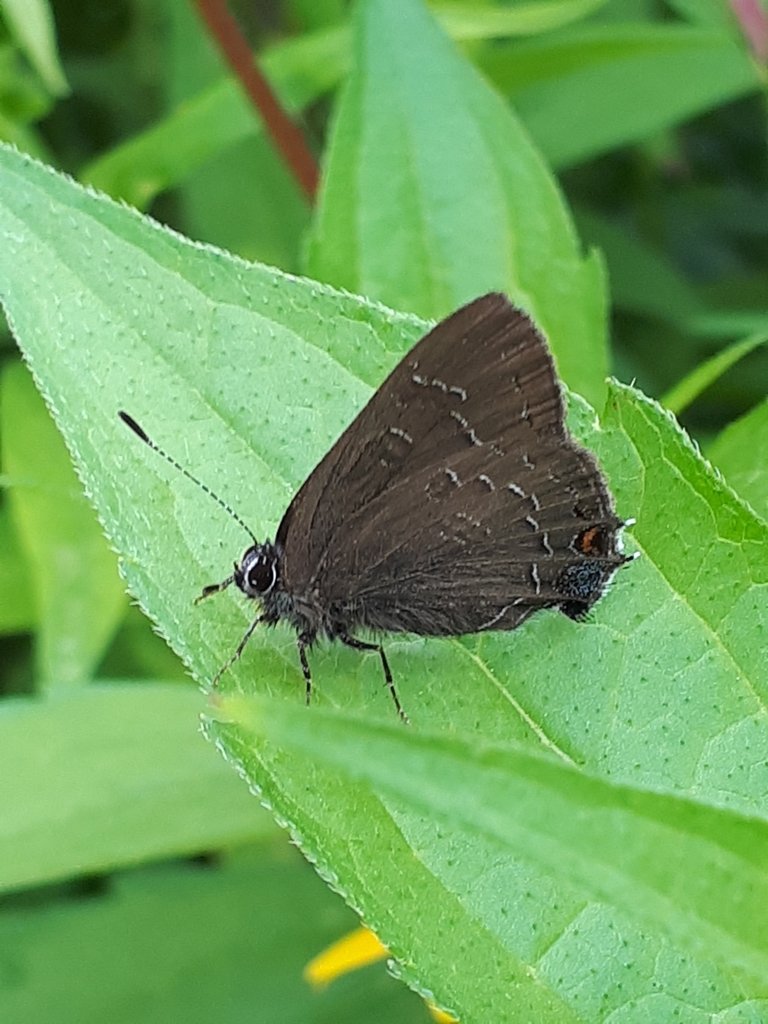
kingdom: Animalia
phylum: Arthropoda
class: Insecta
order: Lepidoptera
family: Lycaenidae
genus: Satyrium
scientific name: Satyrium calanus
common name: Banded Hairstreak
